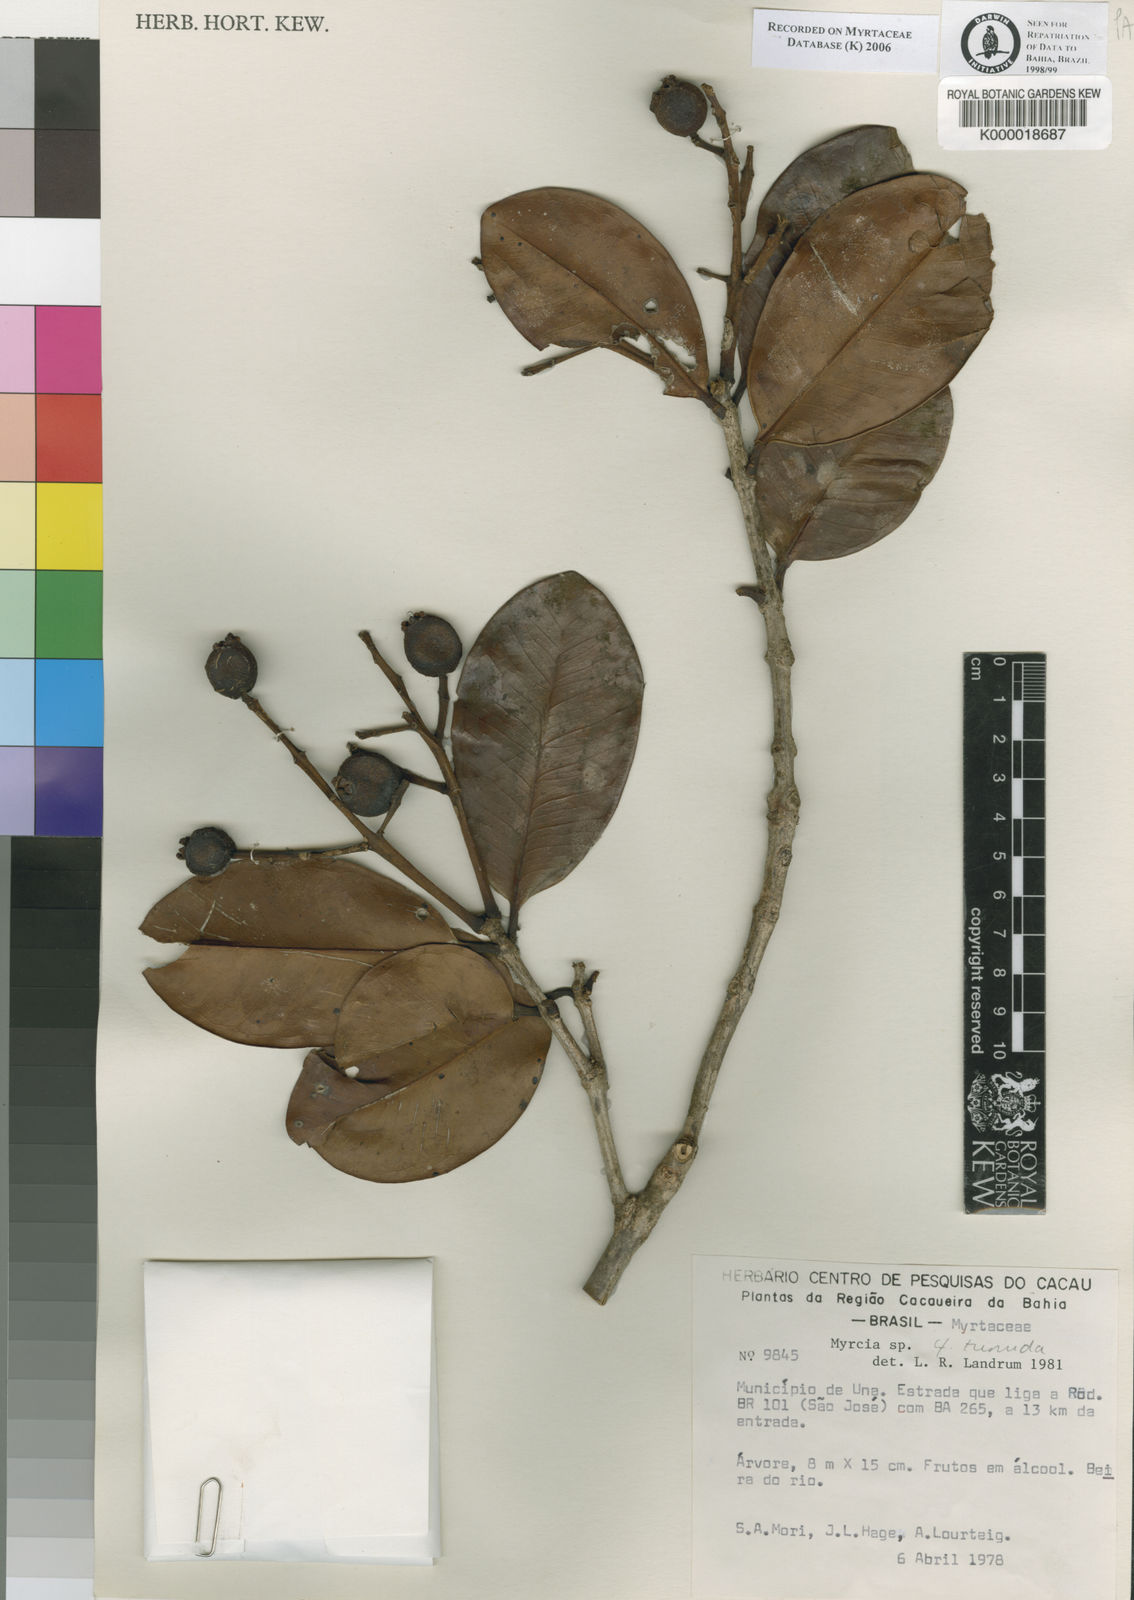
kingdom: Plantae
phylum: Tracheophyta
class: Magnoliopsida
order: Myrtales
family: Myrtaceae
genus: Myrcia
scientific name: Myrcia
